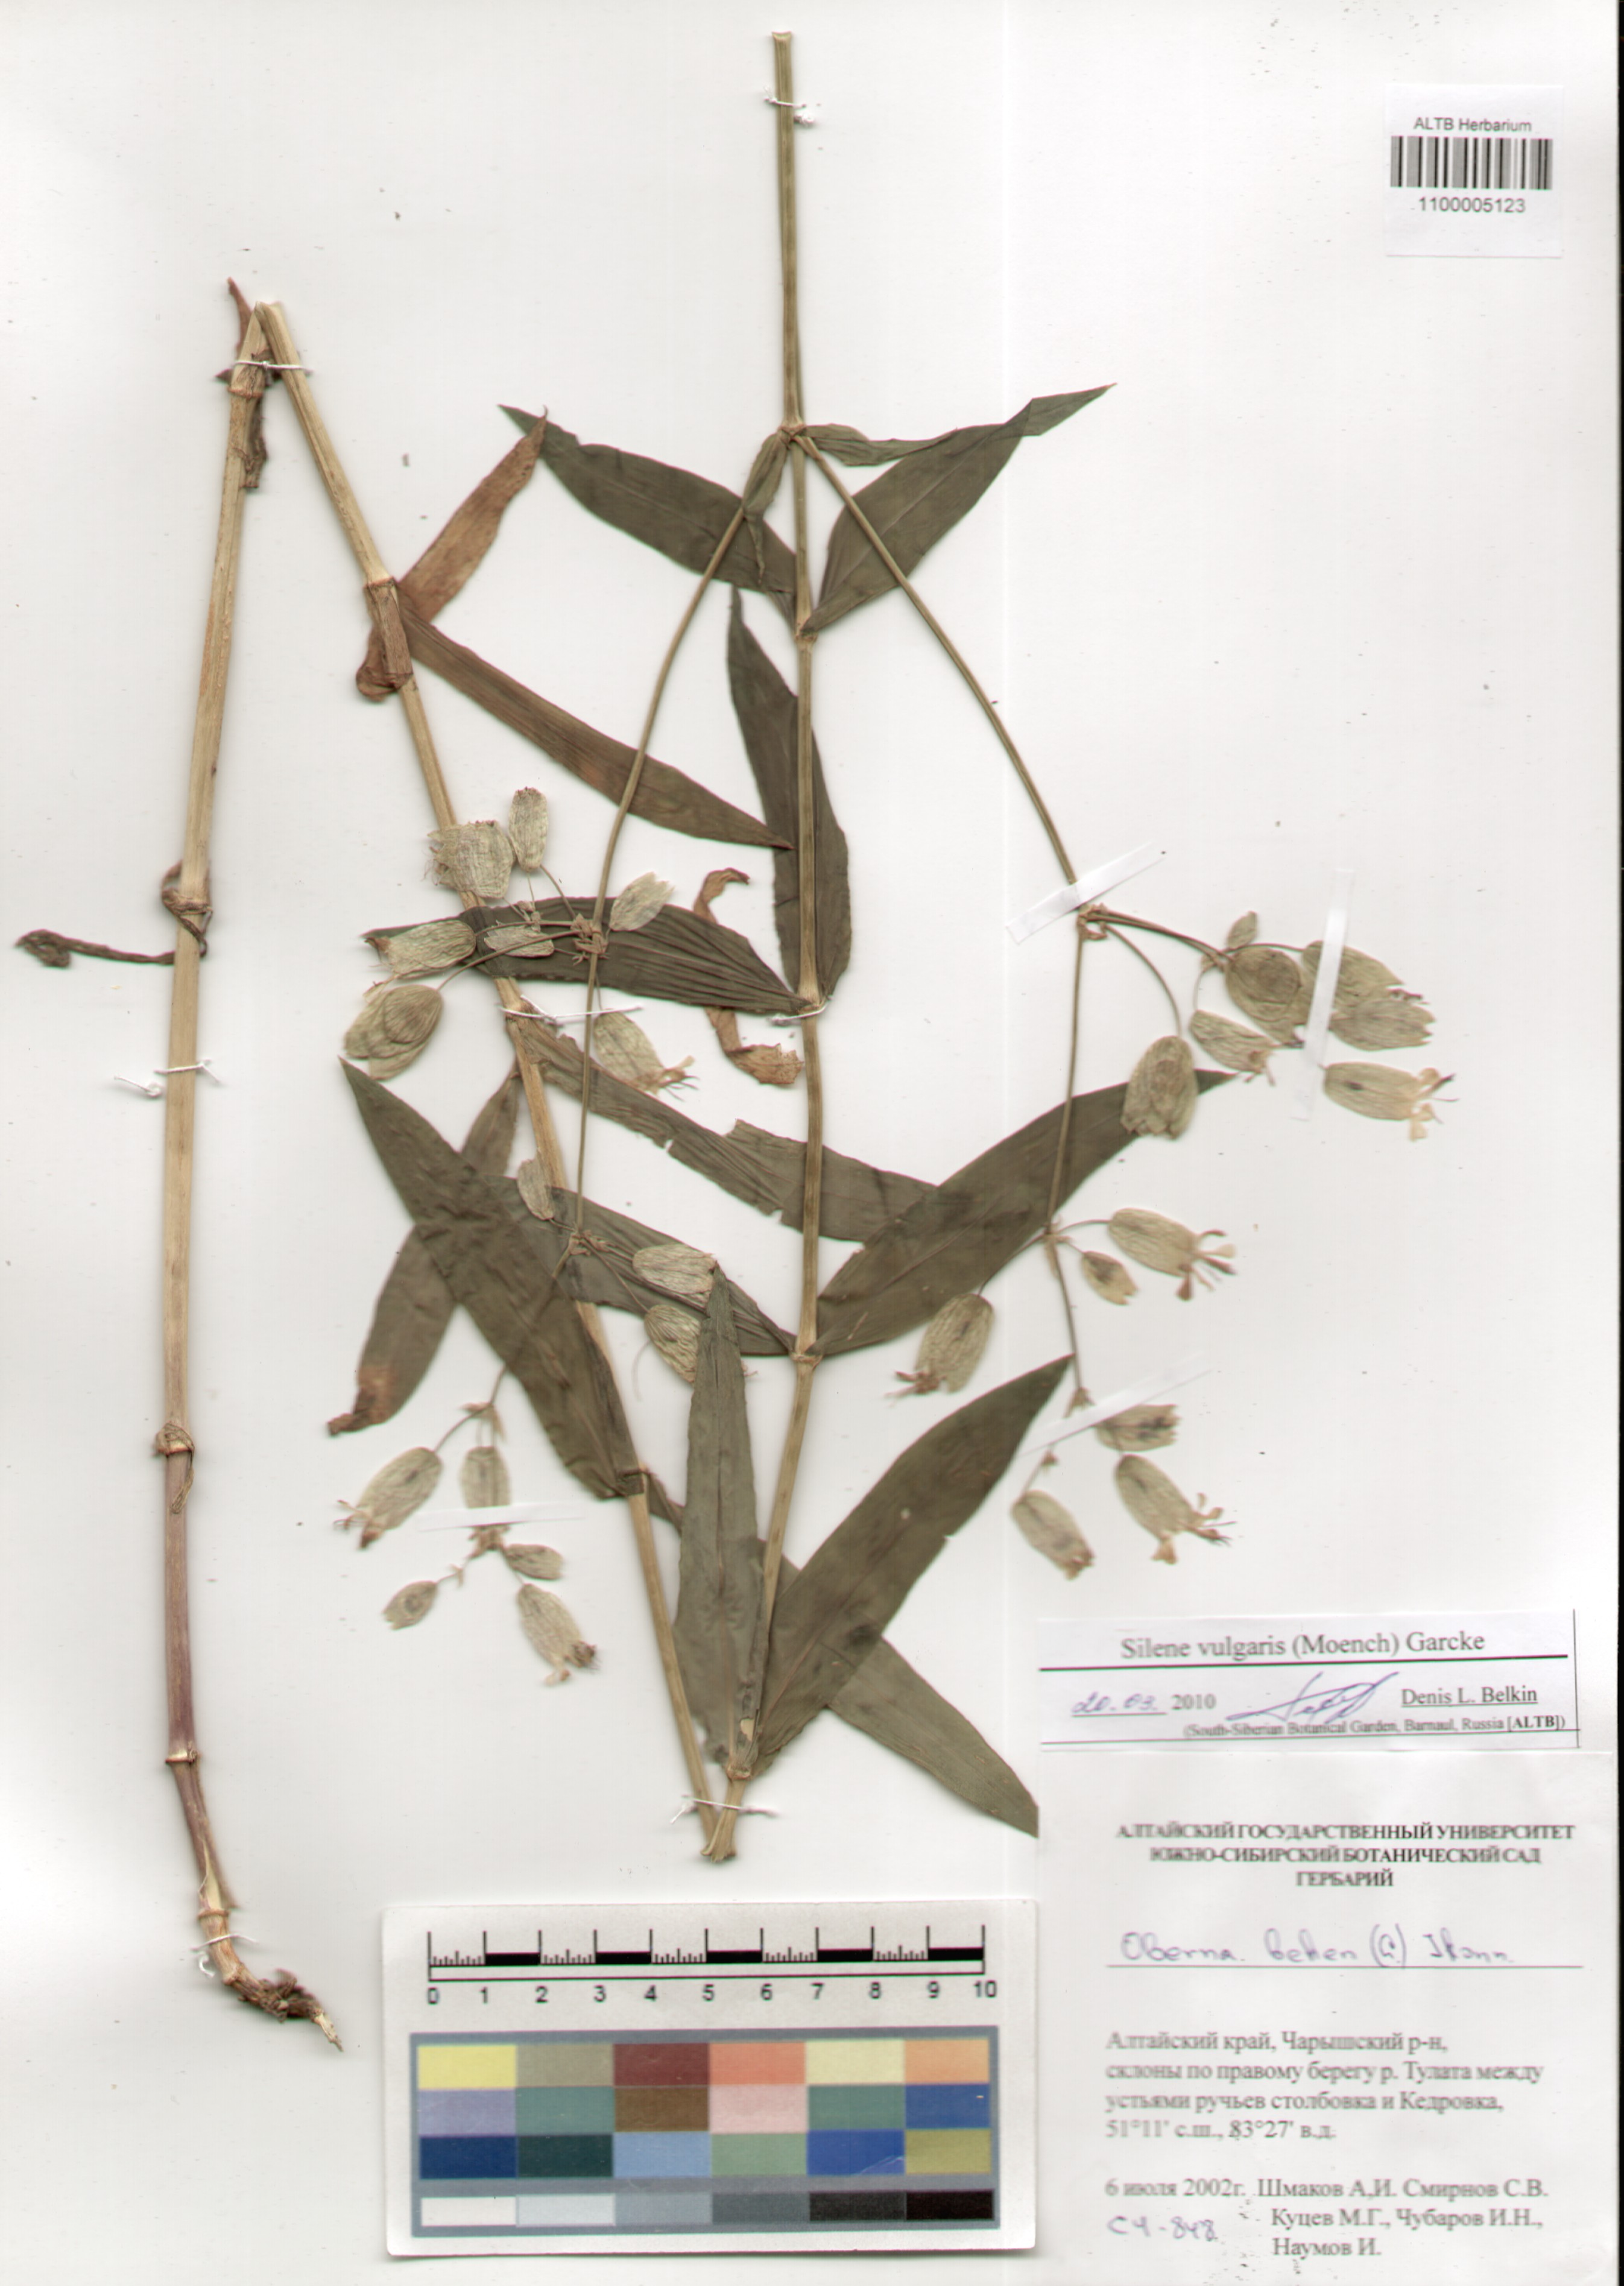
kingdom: Plantae
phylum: Tracheophyta
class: Magnoliopsida
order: Caryophyllales
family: Caryophyllaceae
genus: Silene
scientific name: Silene vulgaris
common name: Bladder campion
